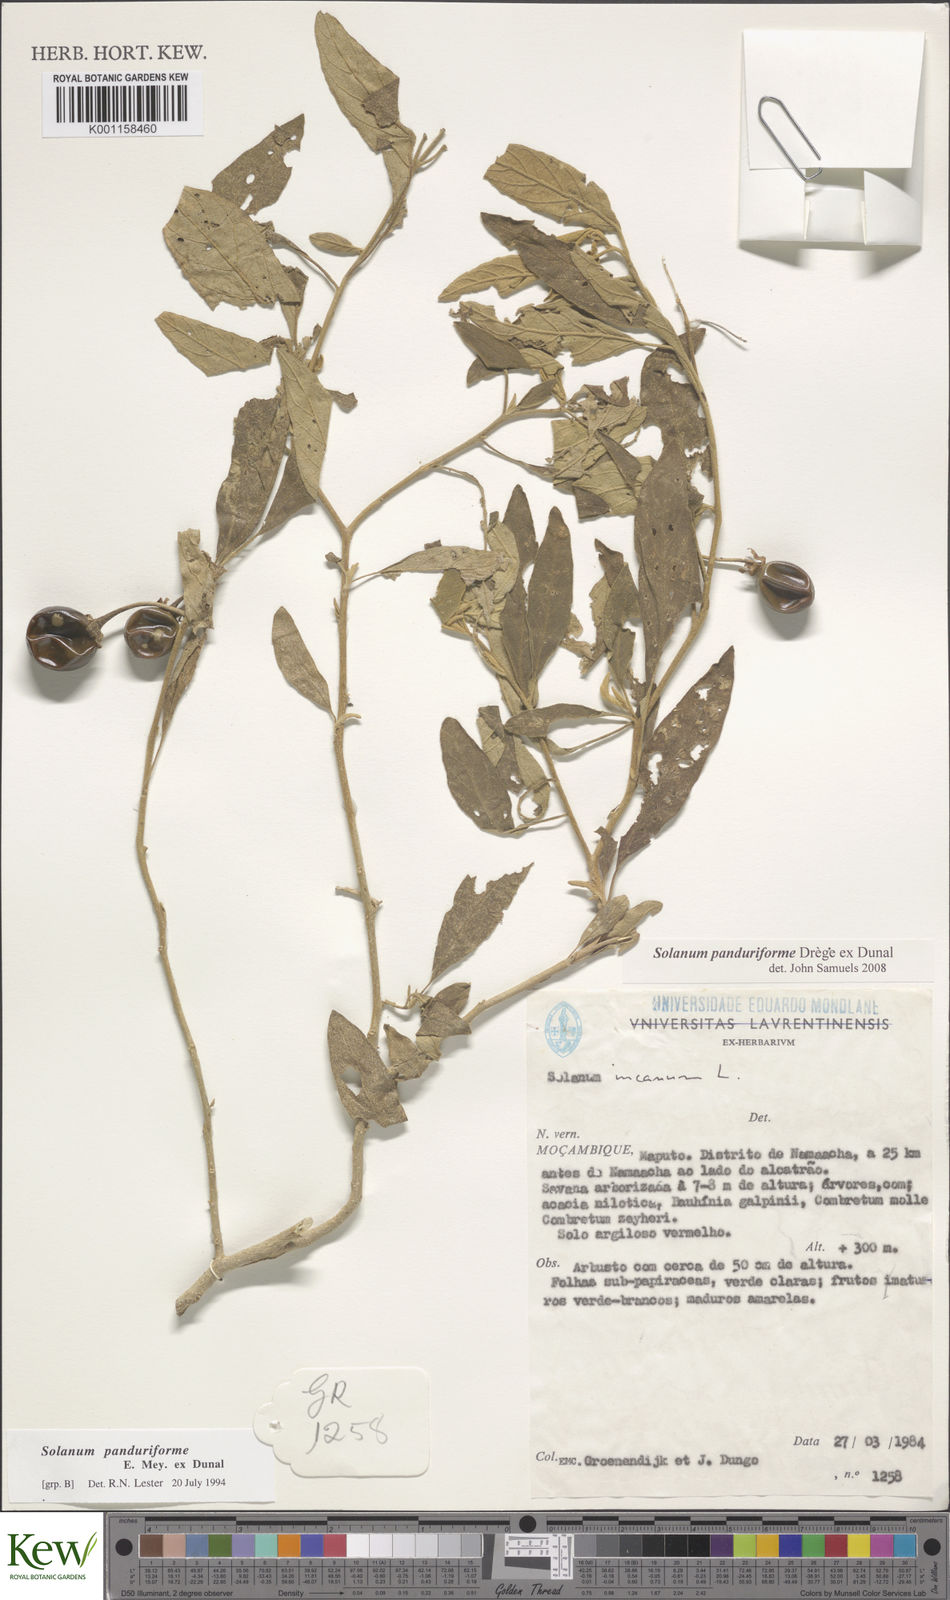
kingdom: Plantae
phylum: Tracheophyta
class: Magnoliopsida
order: Solanales
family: Solanaceae
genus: Solanum
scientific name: Solanum campylacanthum
